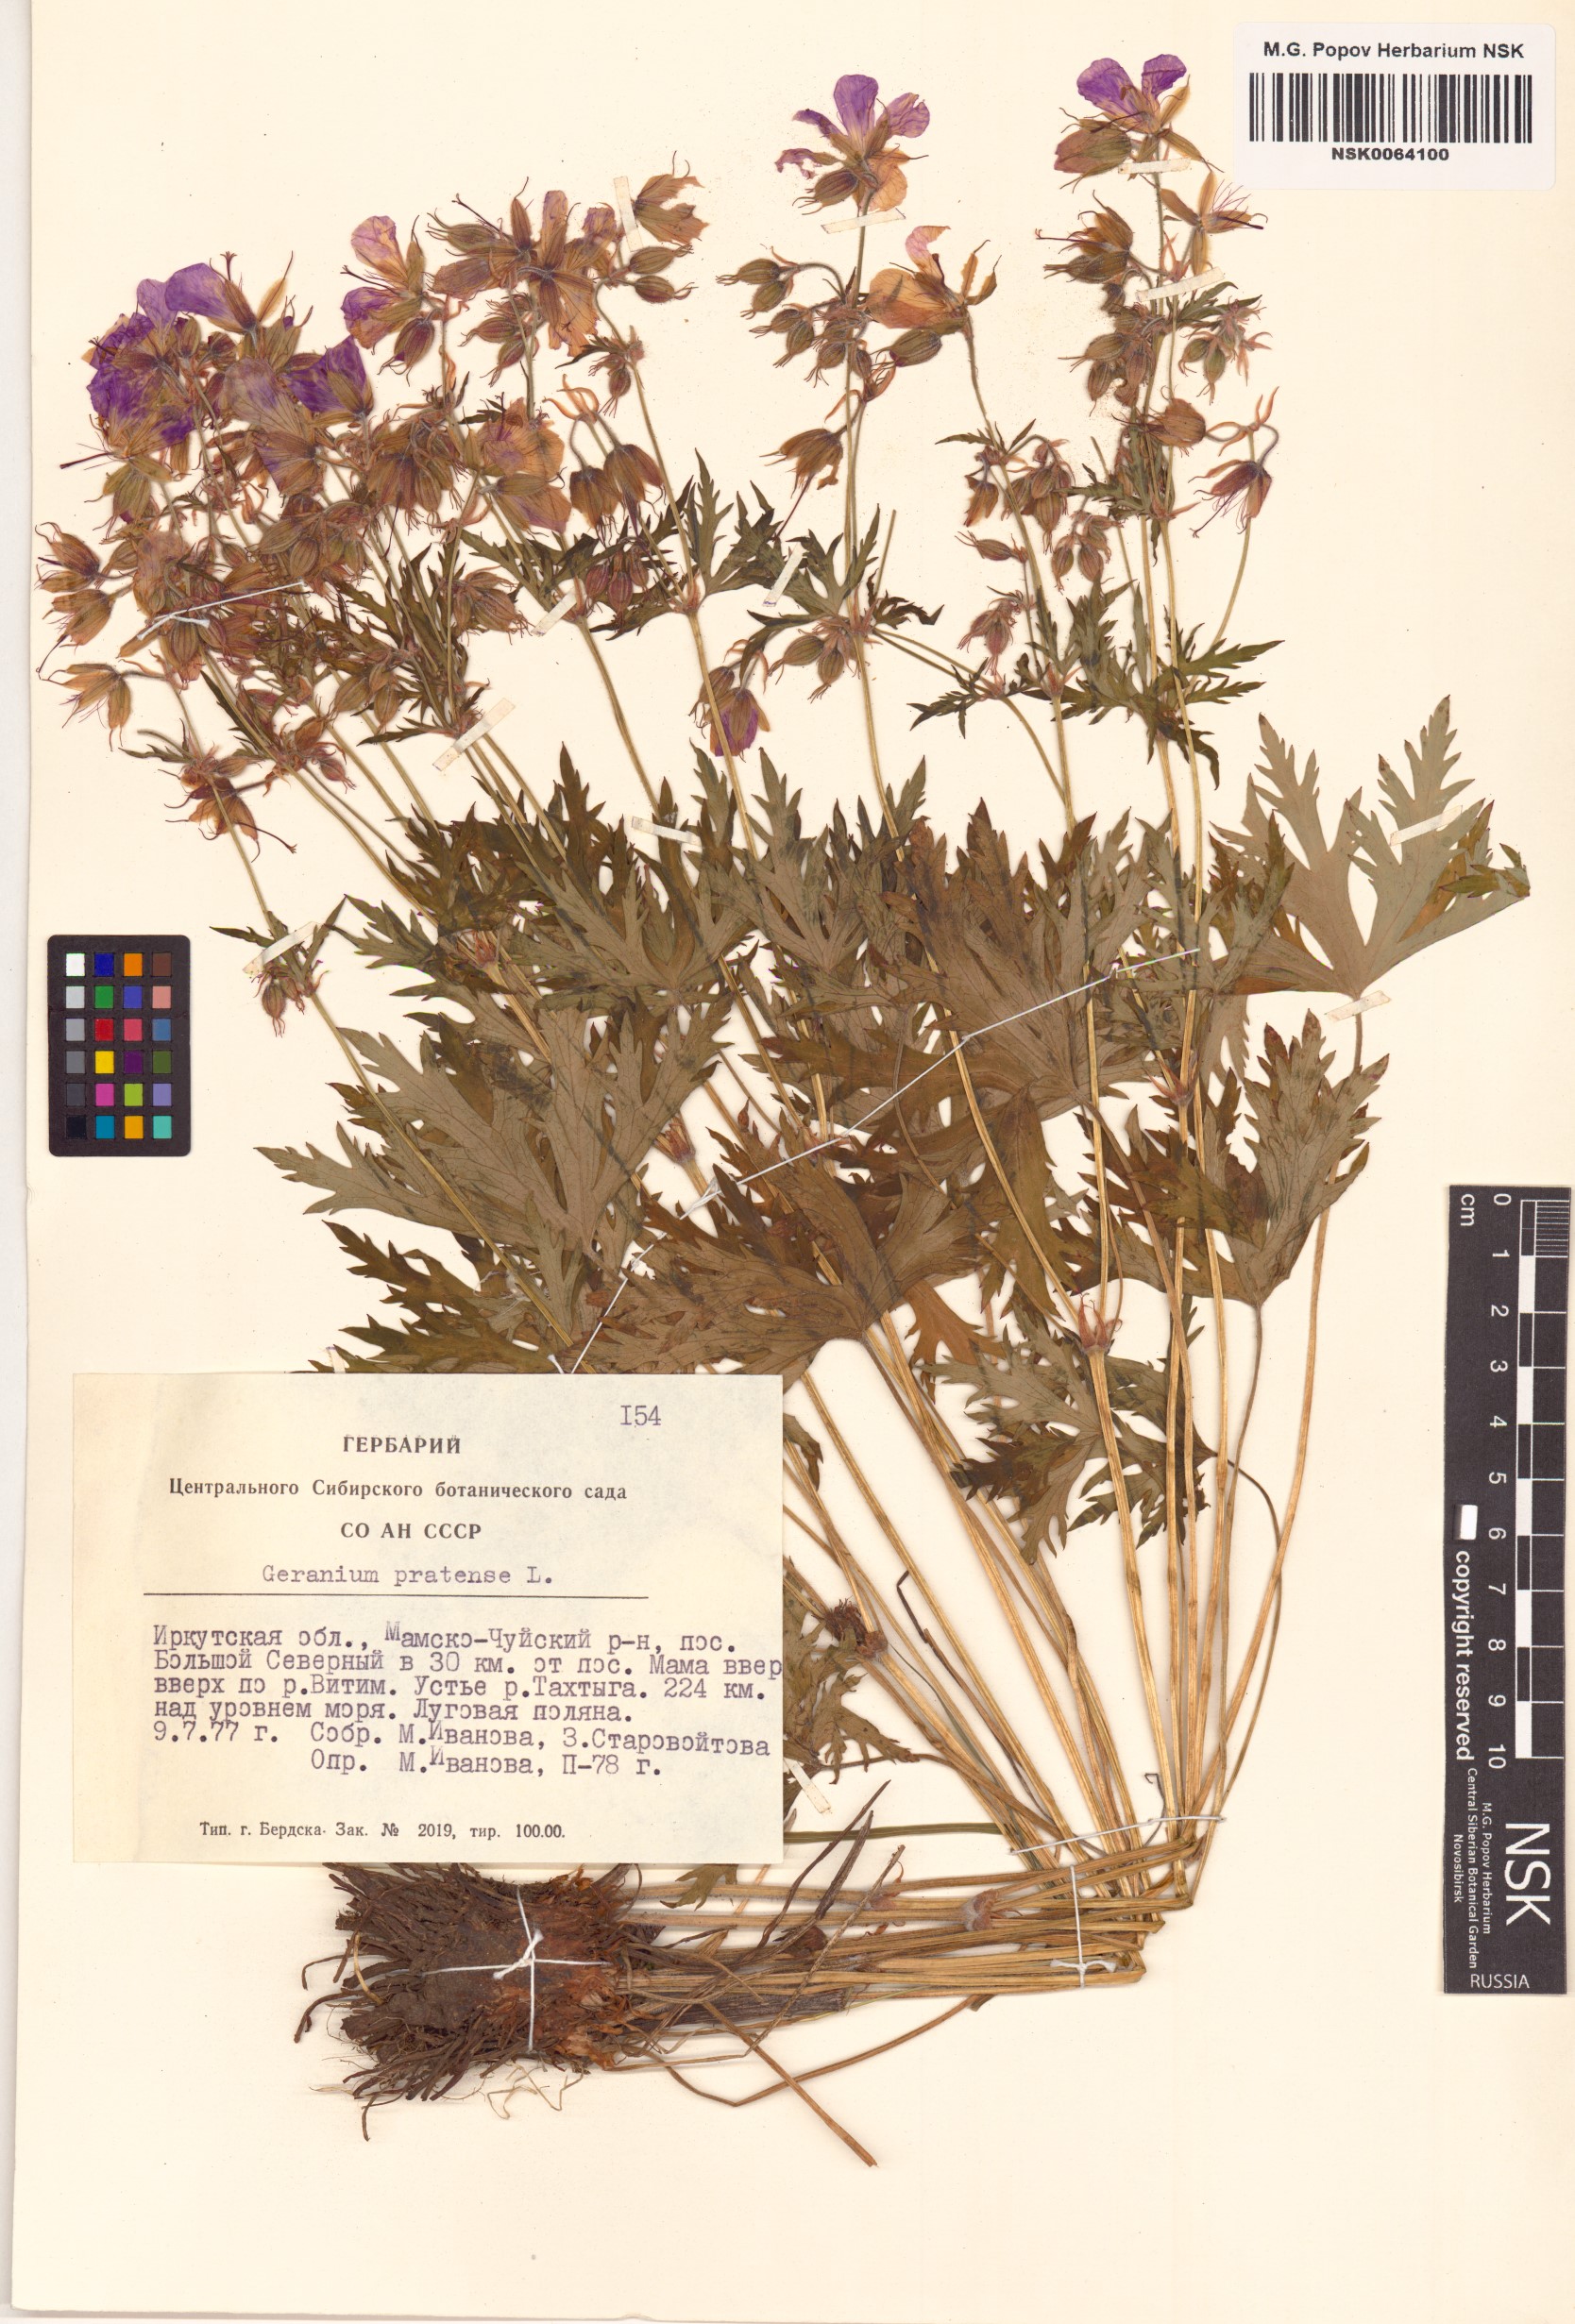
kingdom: Plantae
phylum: Tracheophyta
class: Magnoliopsida
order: Geraniales
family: Geraniaceae
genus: Geranium
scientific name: Geranium pratense
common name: Meadow crane's-bill
